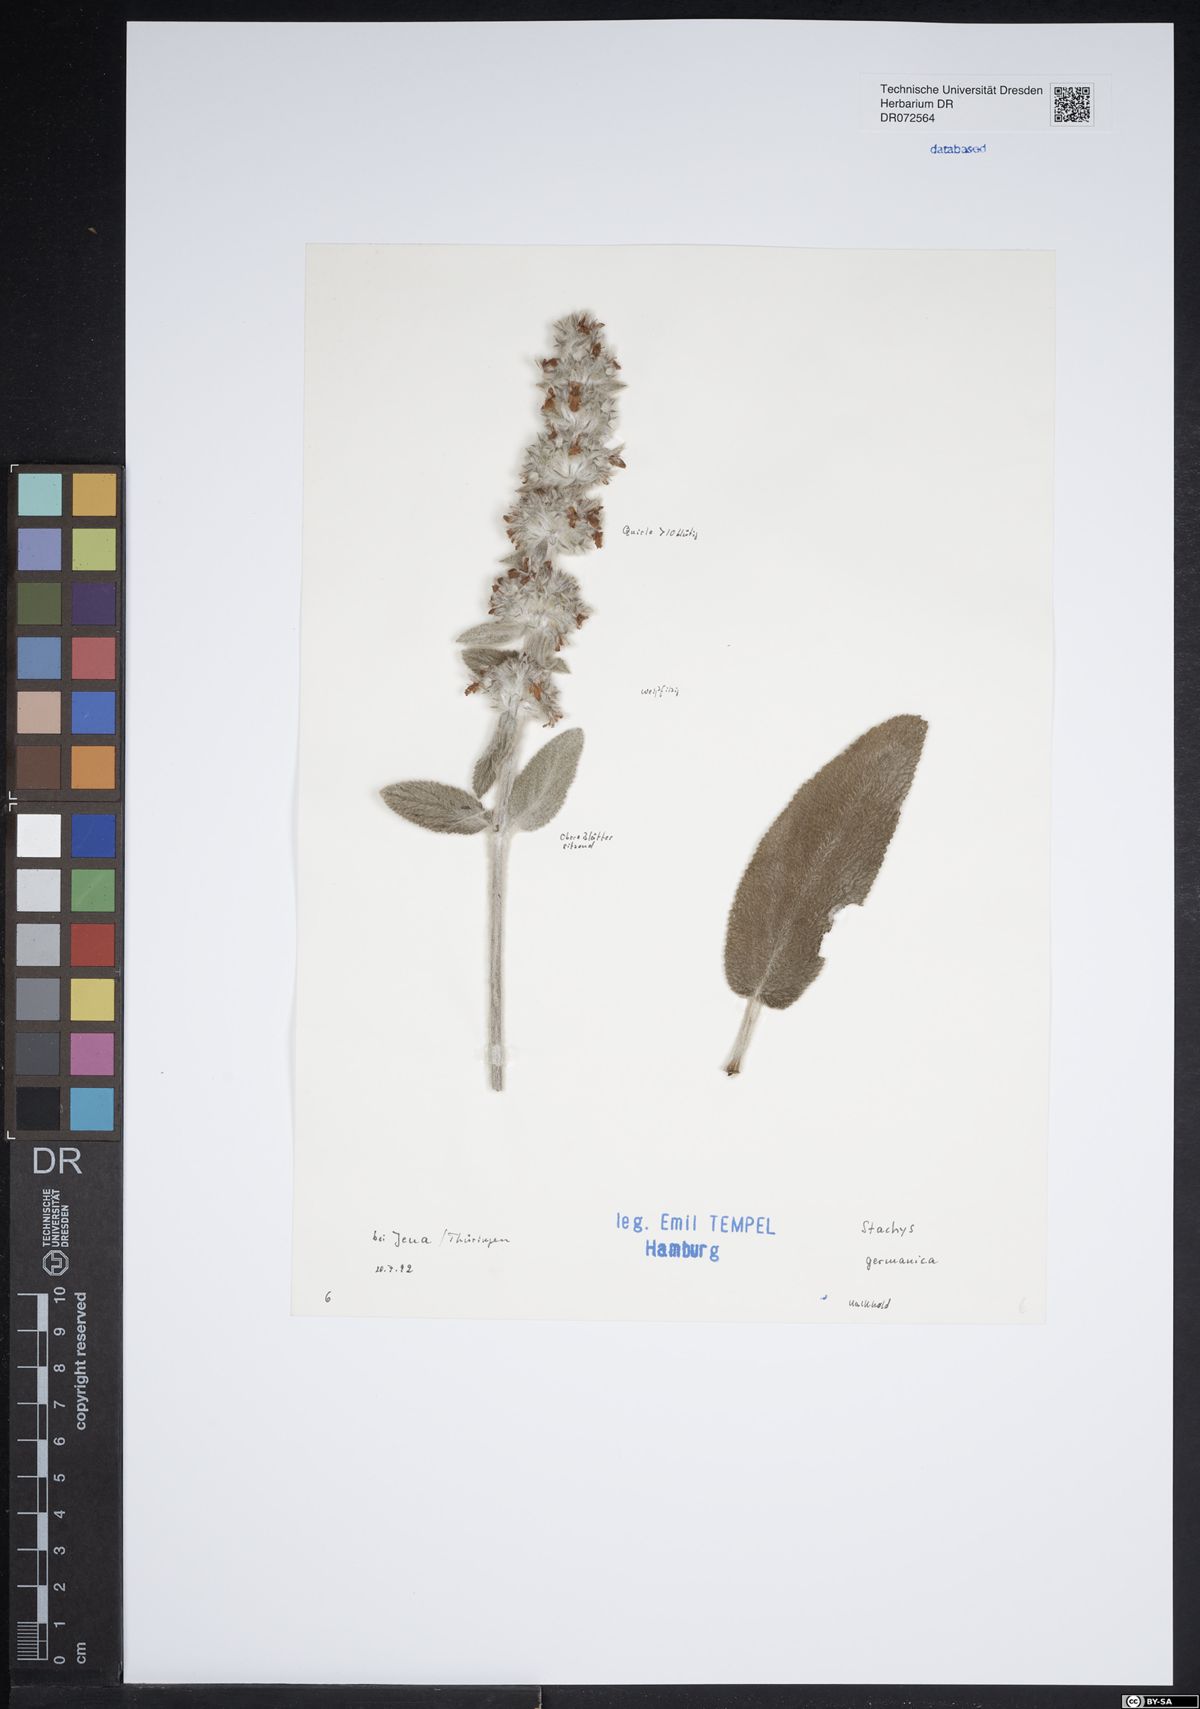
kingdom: Plantae
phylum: Tracheophyta
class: Magnoliopsida
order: Lamiales
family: Lamiaceae
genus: Stachys
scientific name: Stachys germanica
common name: Downy woundwort
